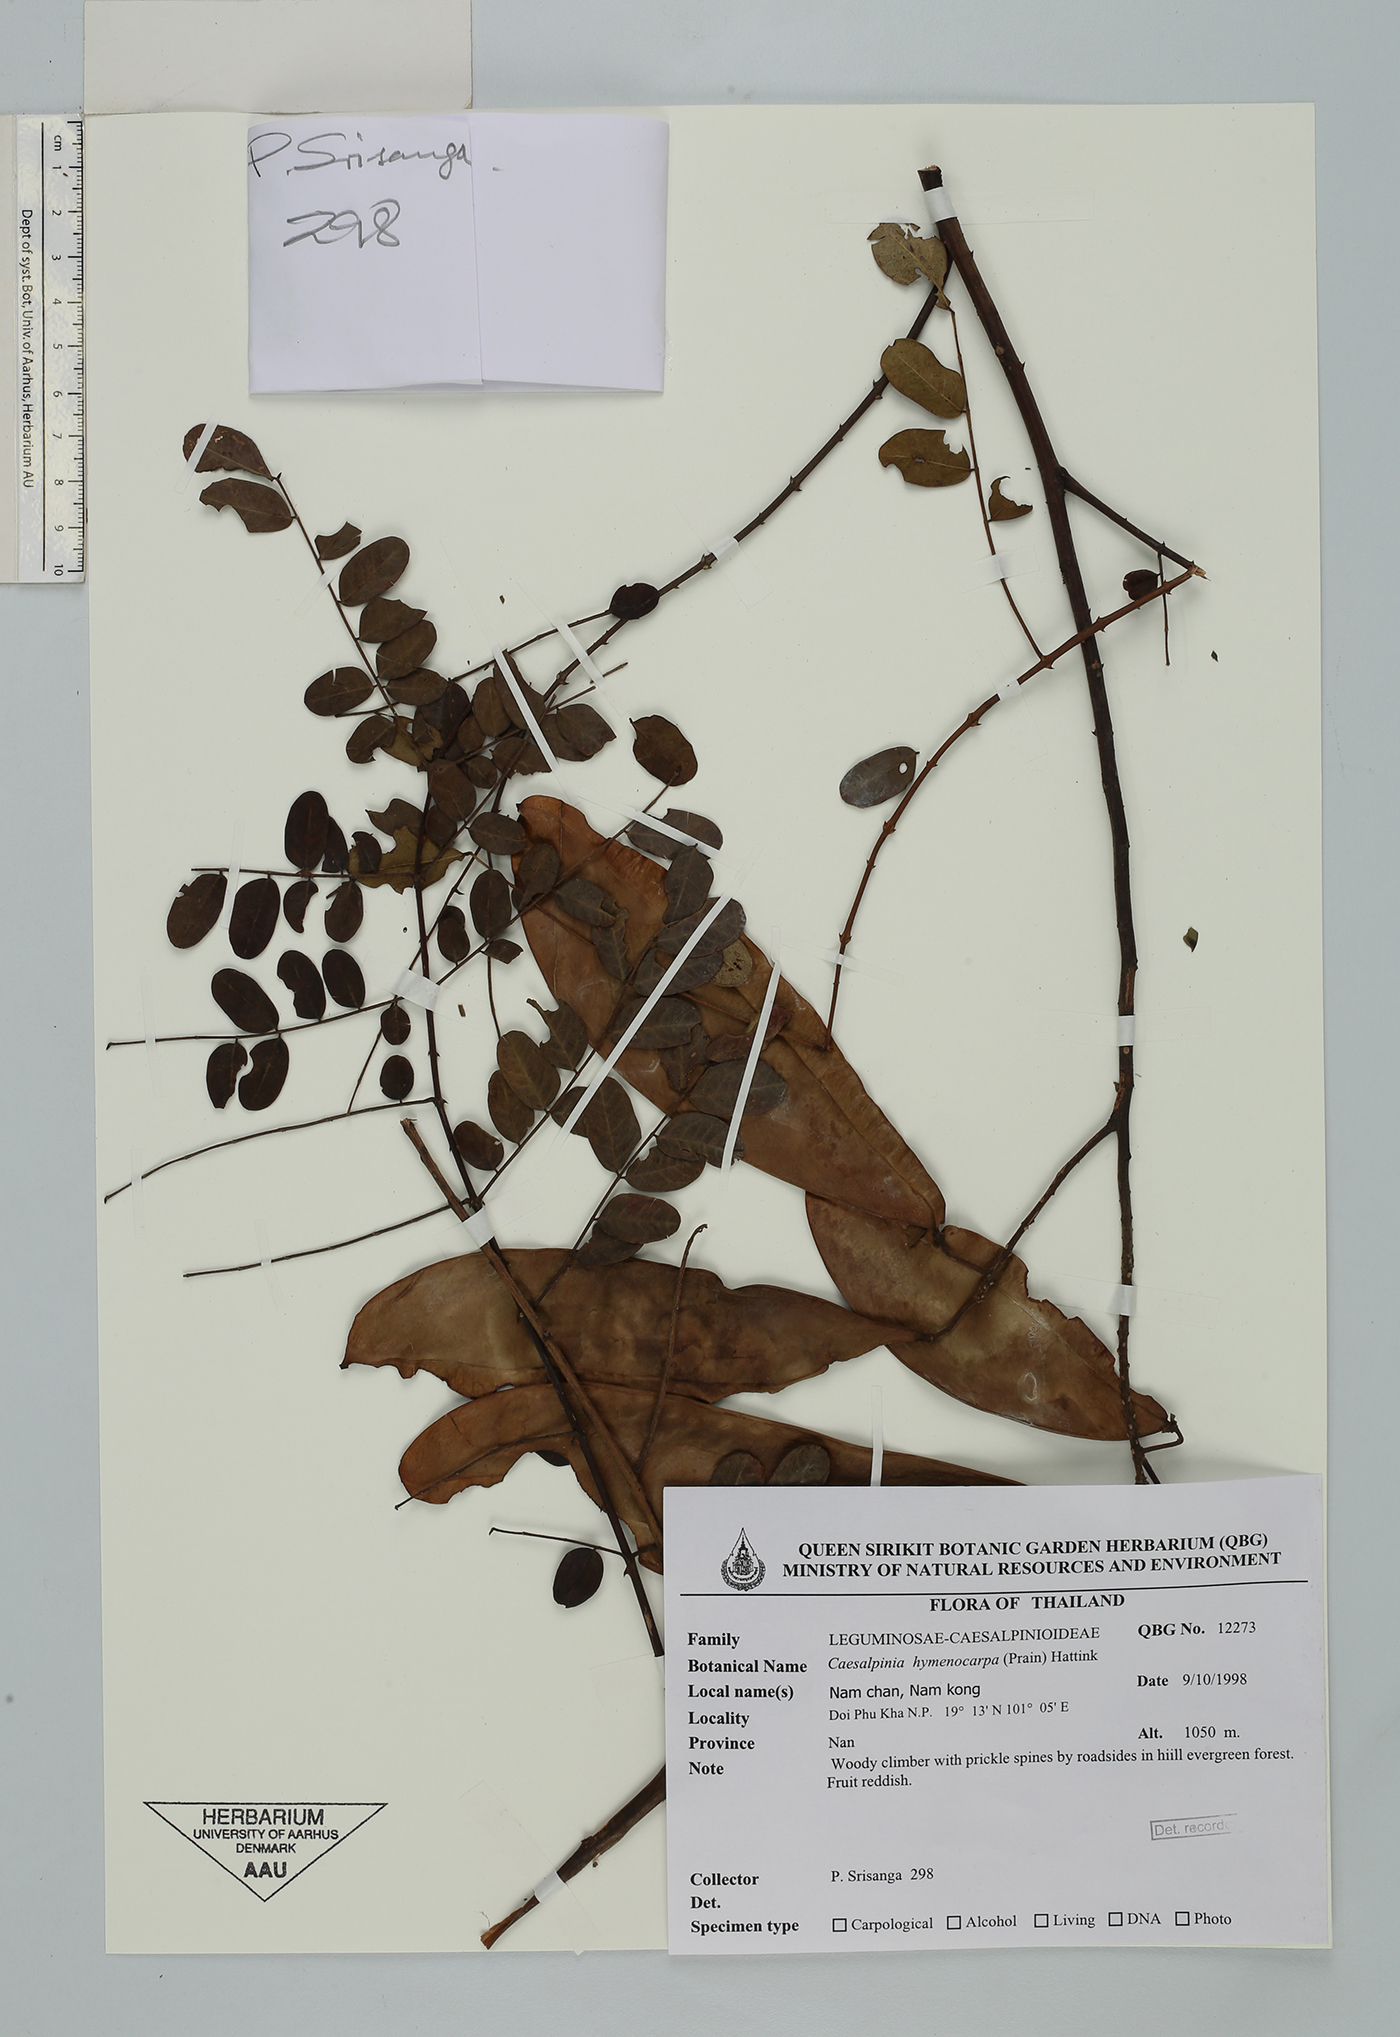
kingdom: Plantae
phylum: Tracheophyta
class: Magnoliopsida
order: Fabales
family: Fabaceae
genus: Mezoneuron
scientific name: Mezoneuron hymenocarpum
